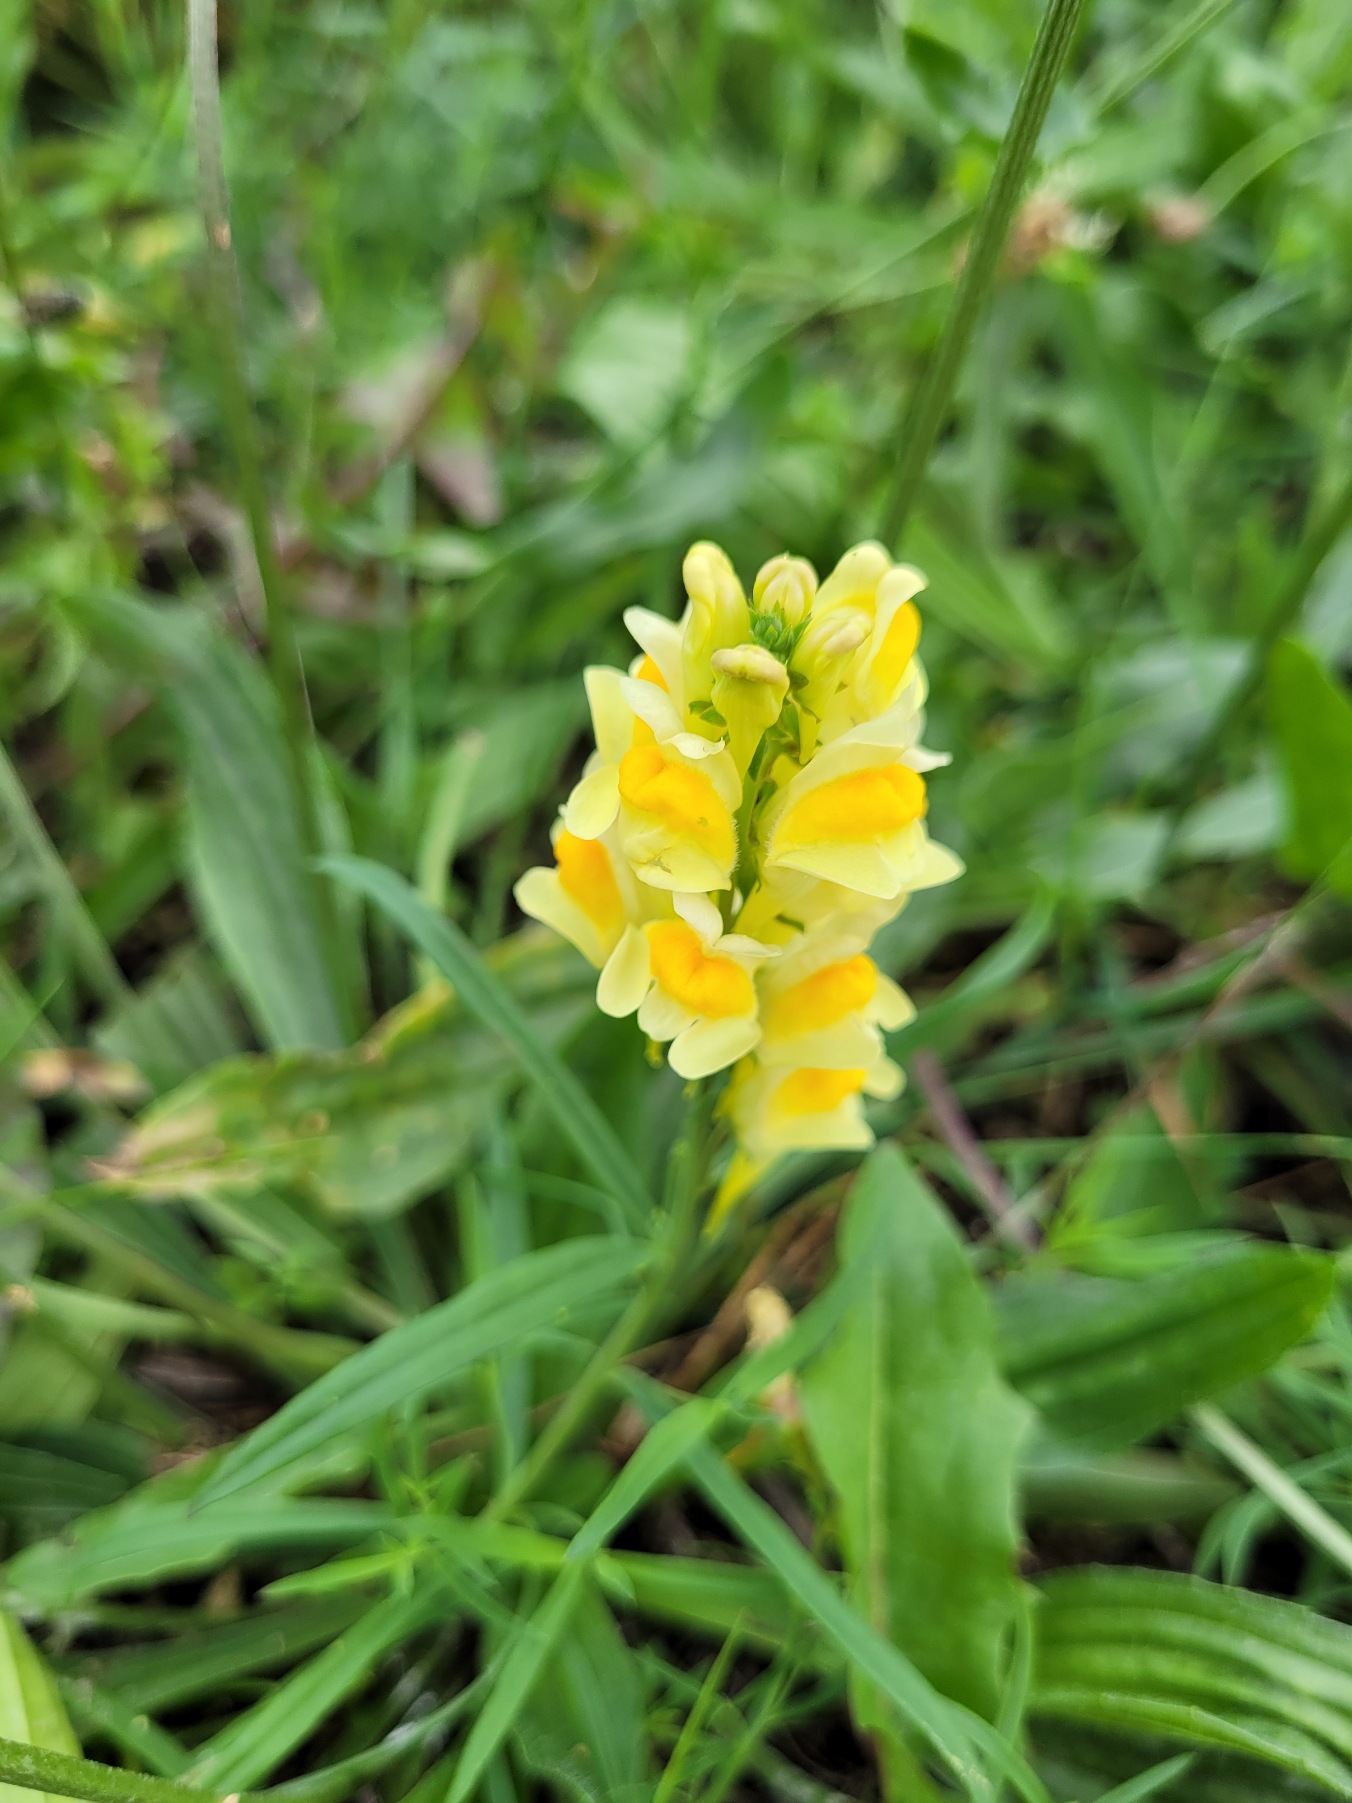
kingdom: Plantae
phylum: Tracheophyta
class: Magnoliopsida
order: Lamiales
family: Plantaginaceae
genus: Linaria
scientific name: Linaria vulgaris
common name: Almindelig torskemund
